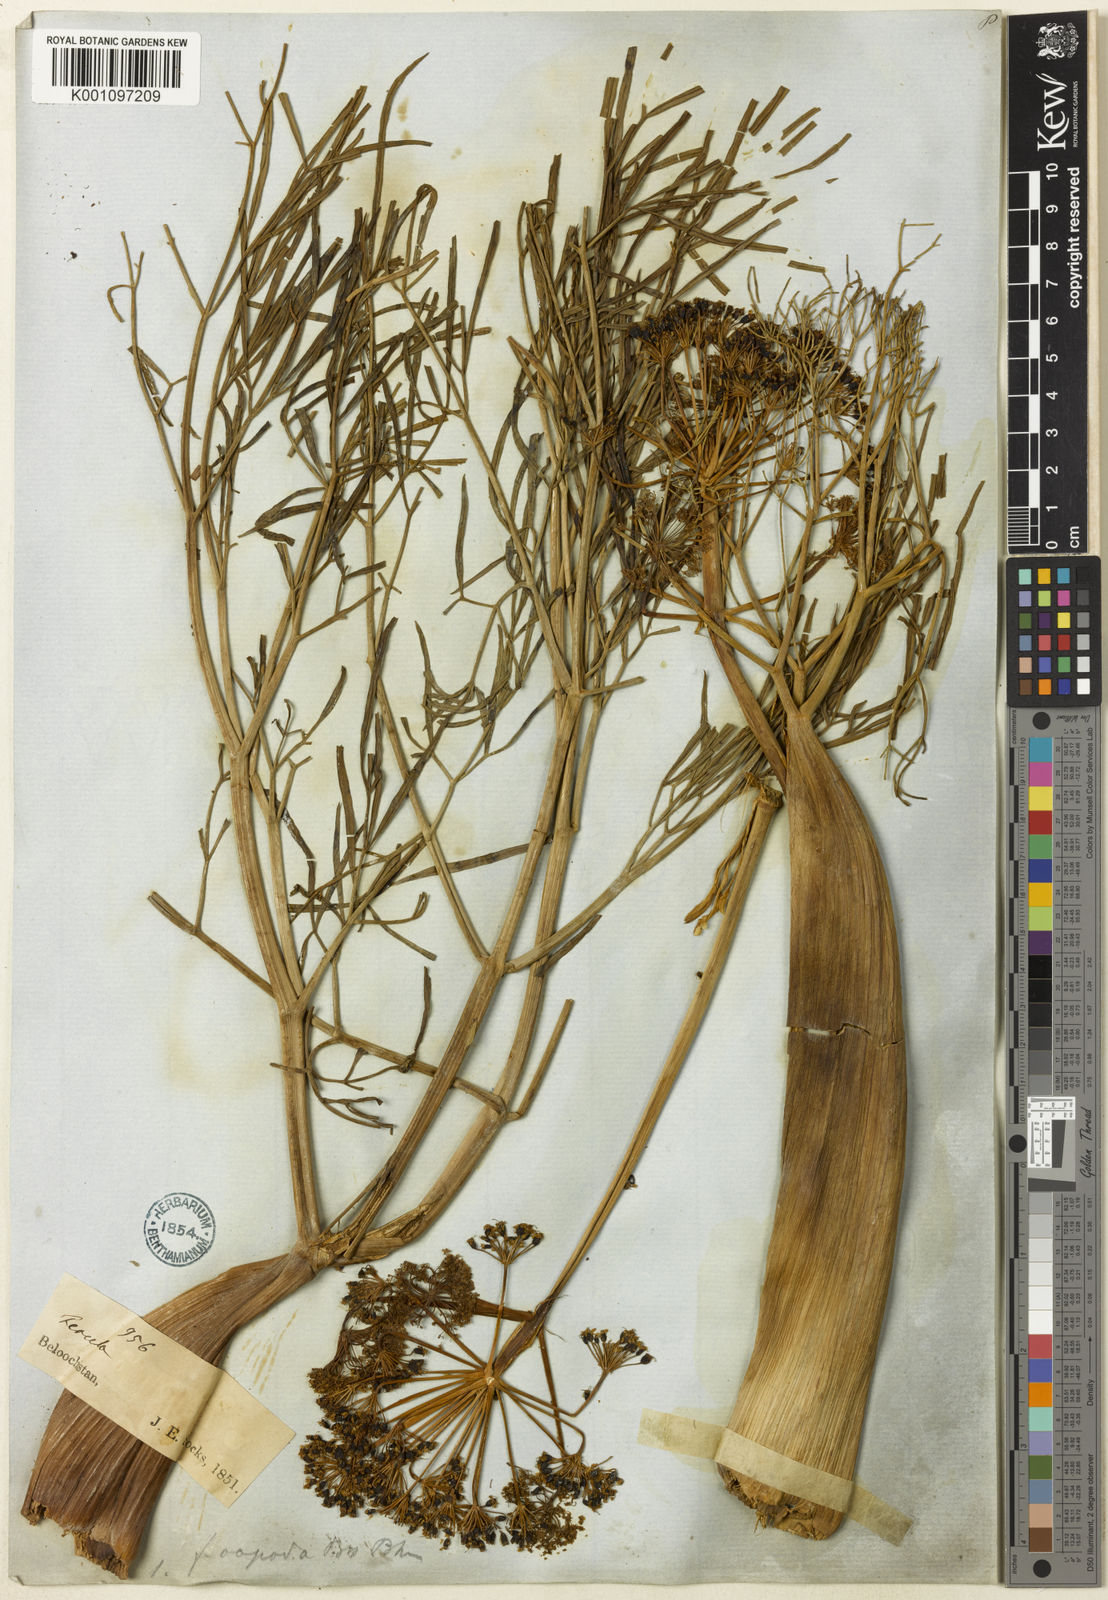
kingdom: Plantae
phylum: Tracheophyta
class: Magnoliopsida
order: Apiales
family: Apiaceae
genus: Ferula
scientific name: Ferula oopoda
